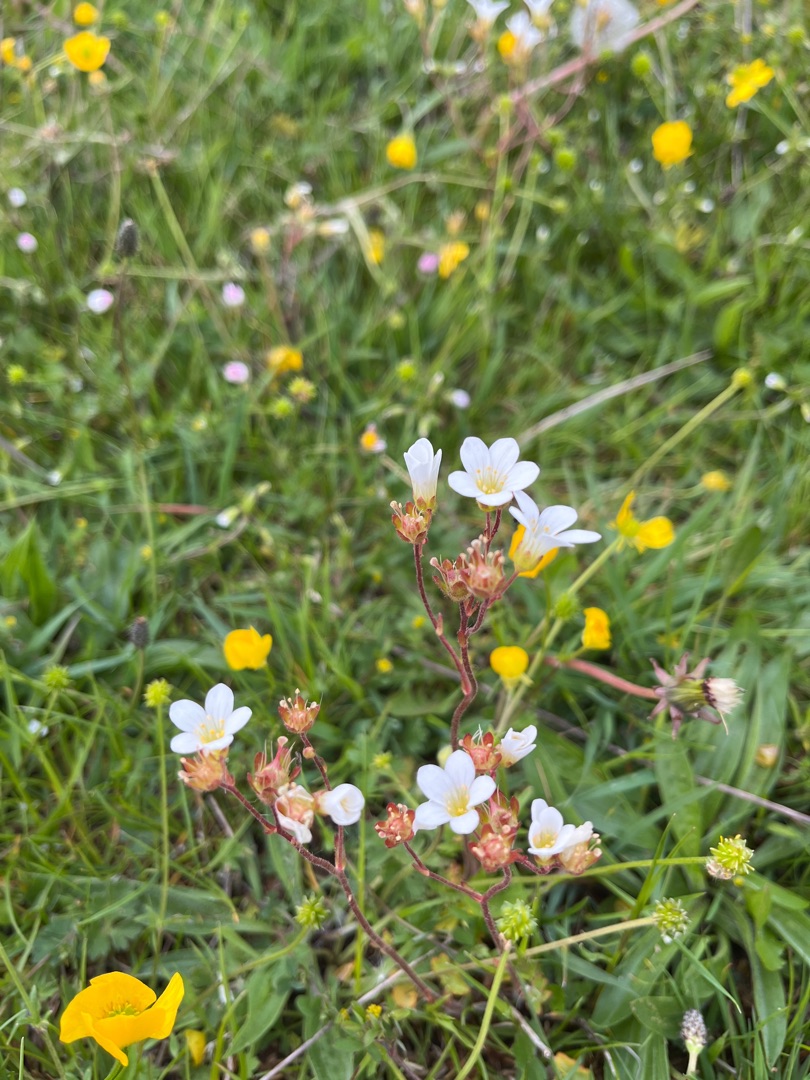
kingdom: Plantae
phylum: Tracheophyta
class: Magnoliopsida
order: Saxifragales
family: Saxifragaceae
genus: Saxifraga
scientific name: Saxifraga granulata
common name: Kornet stenbræk
